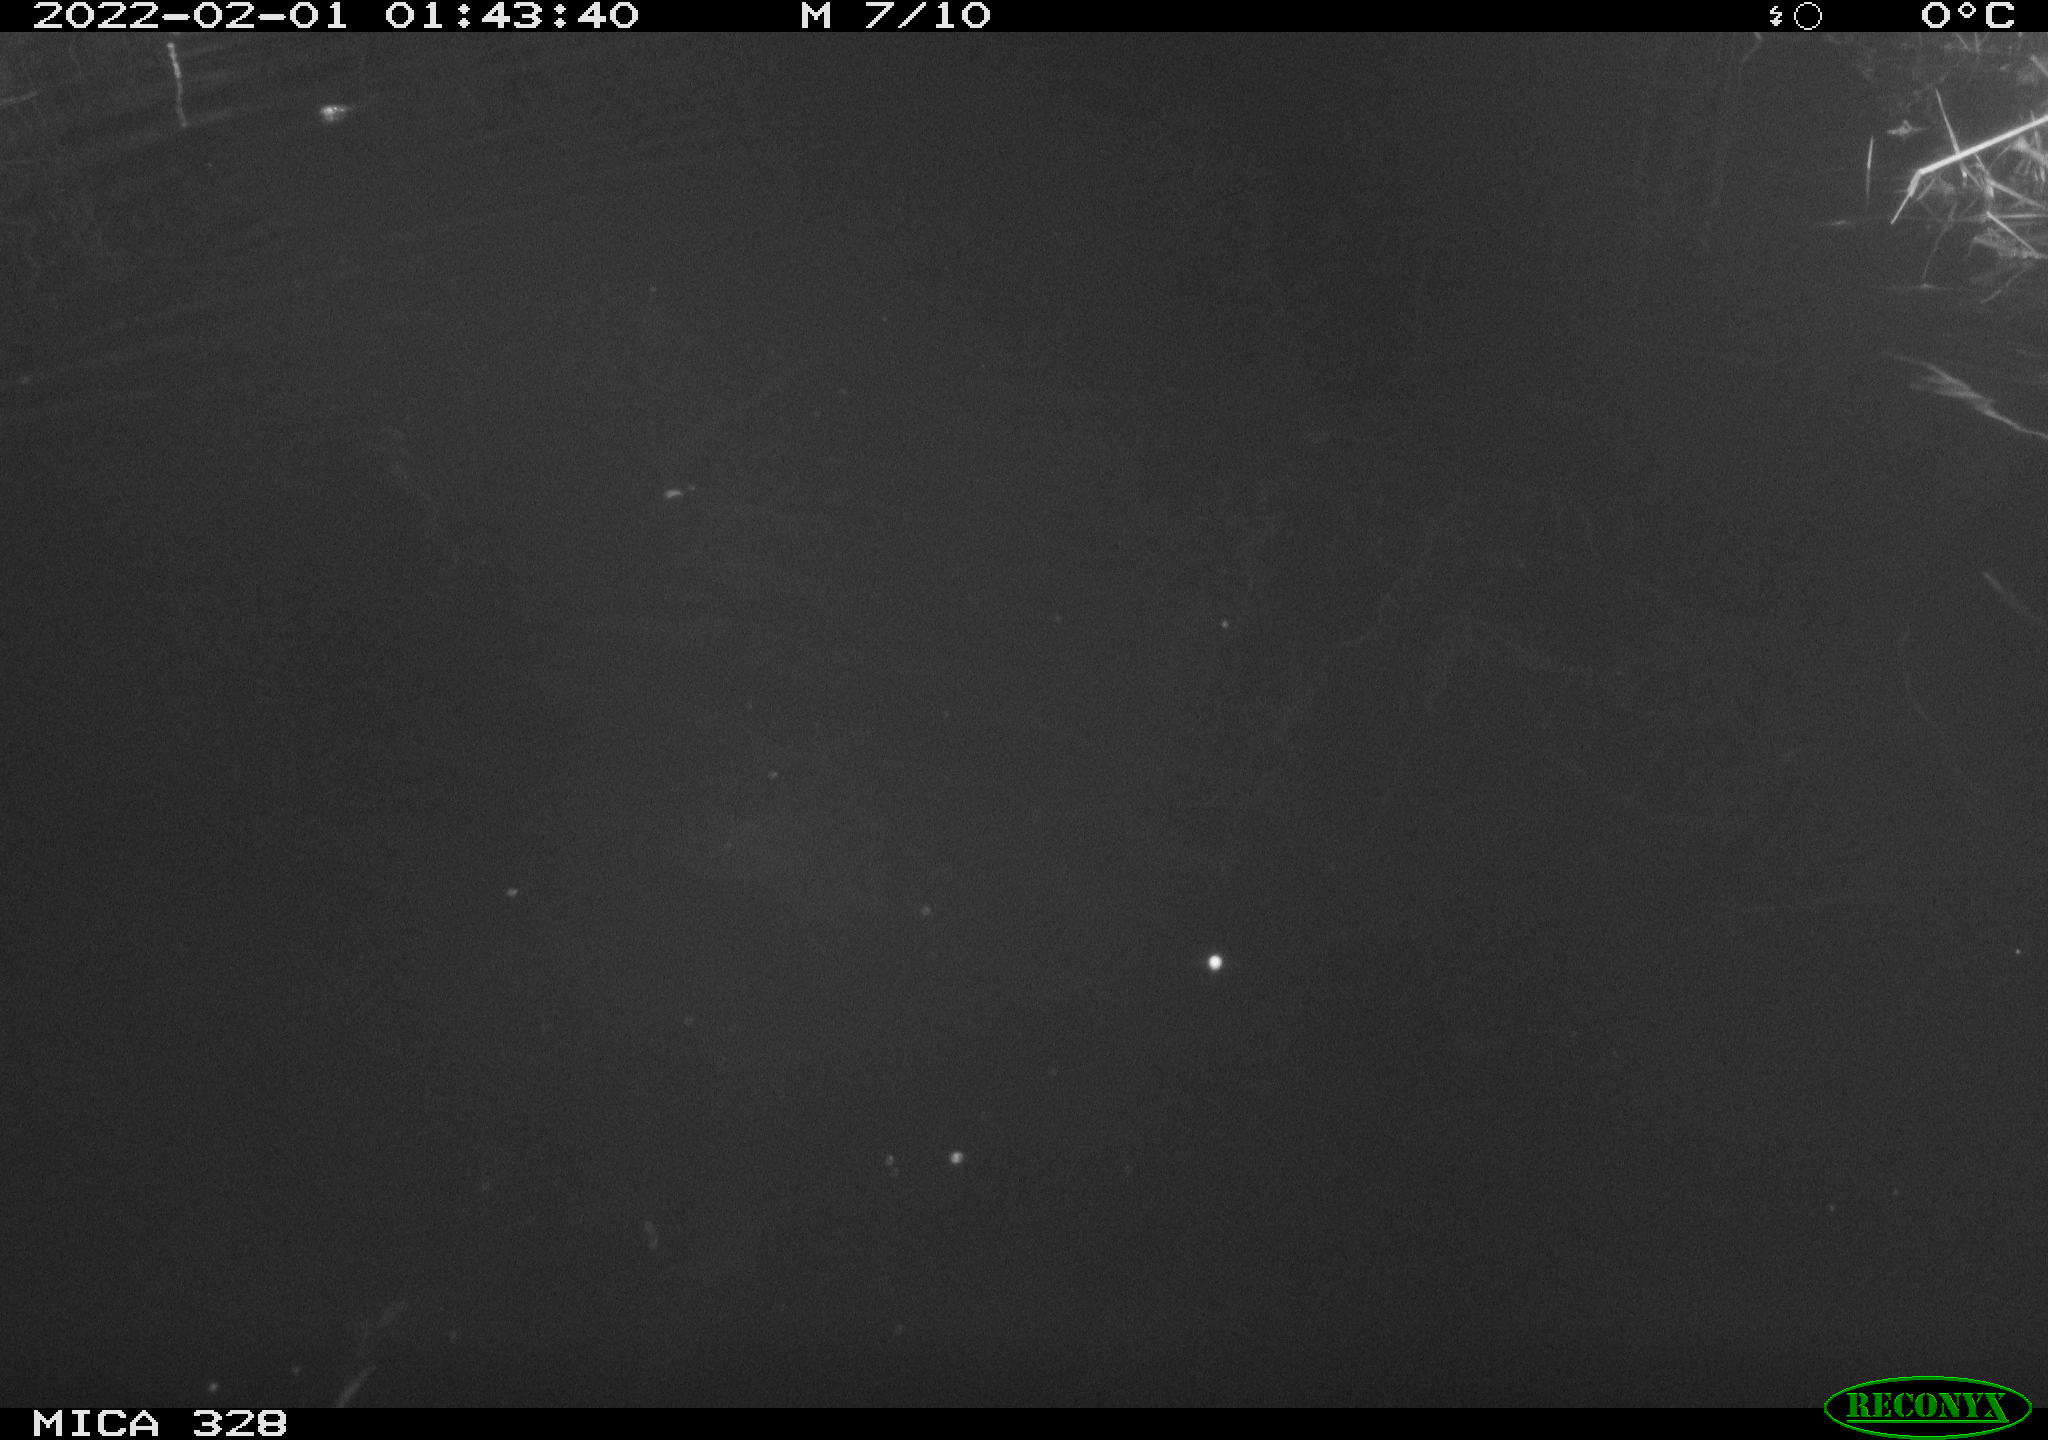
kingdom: Animalia
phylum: Chordata
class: Mammalia
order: Rodentia
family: Muridae
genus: Rattus
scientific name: Rattus norvegicus
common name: Brown rat
